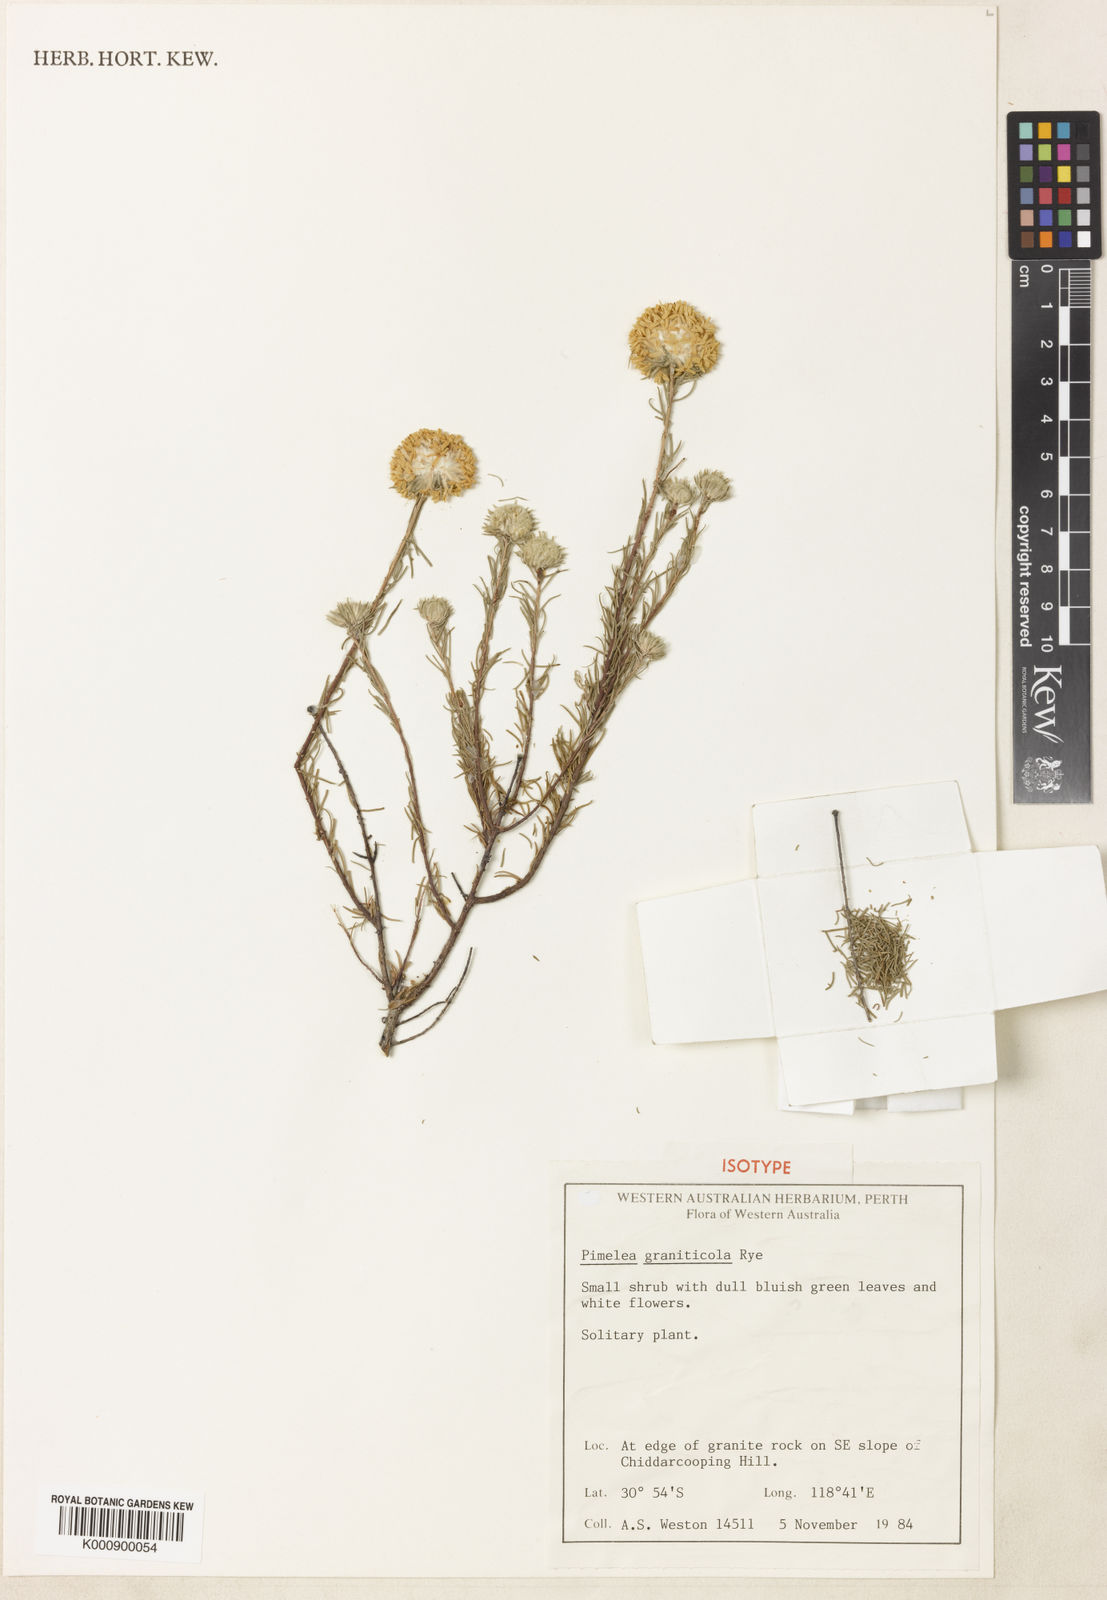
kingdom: Plantae
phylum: Tracheophyta
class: Magnoliopsida
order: Malvales
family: Thymelaeaceae
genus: Pimelea
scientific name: Pimelea graniticola
